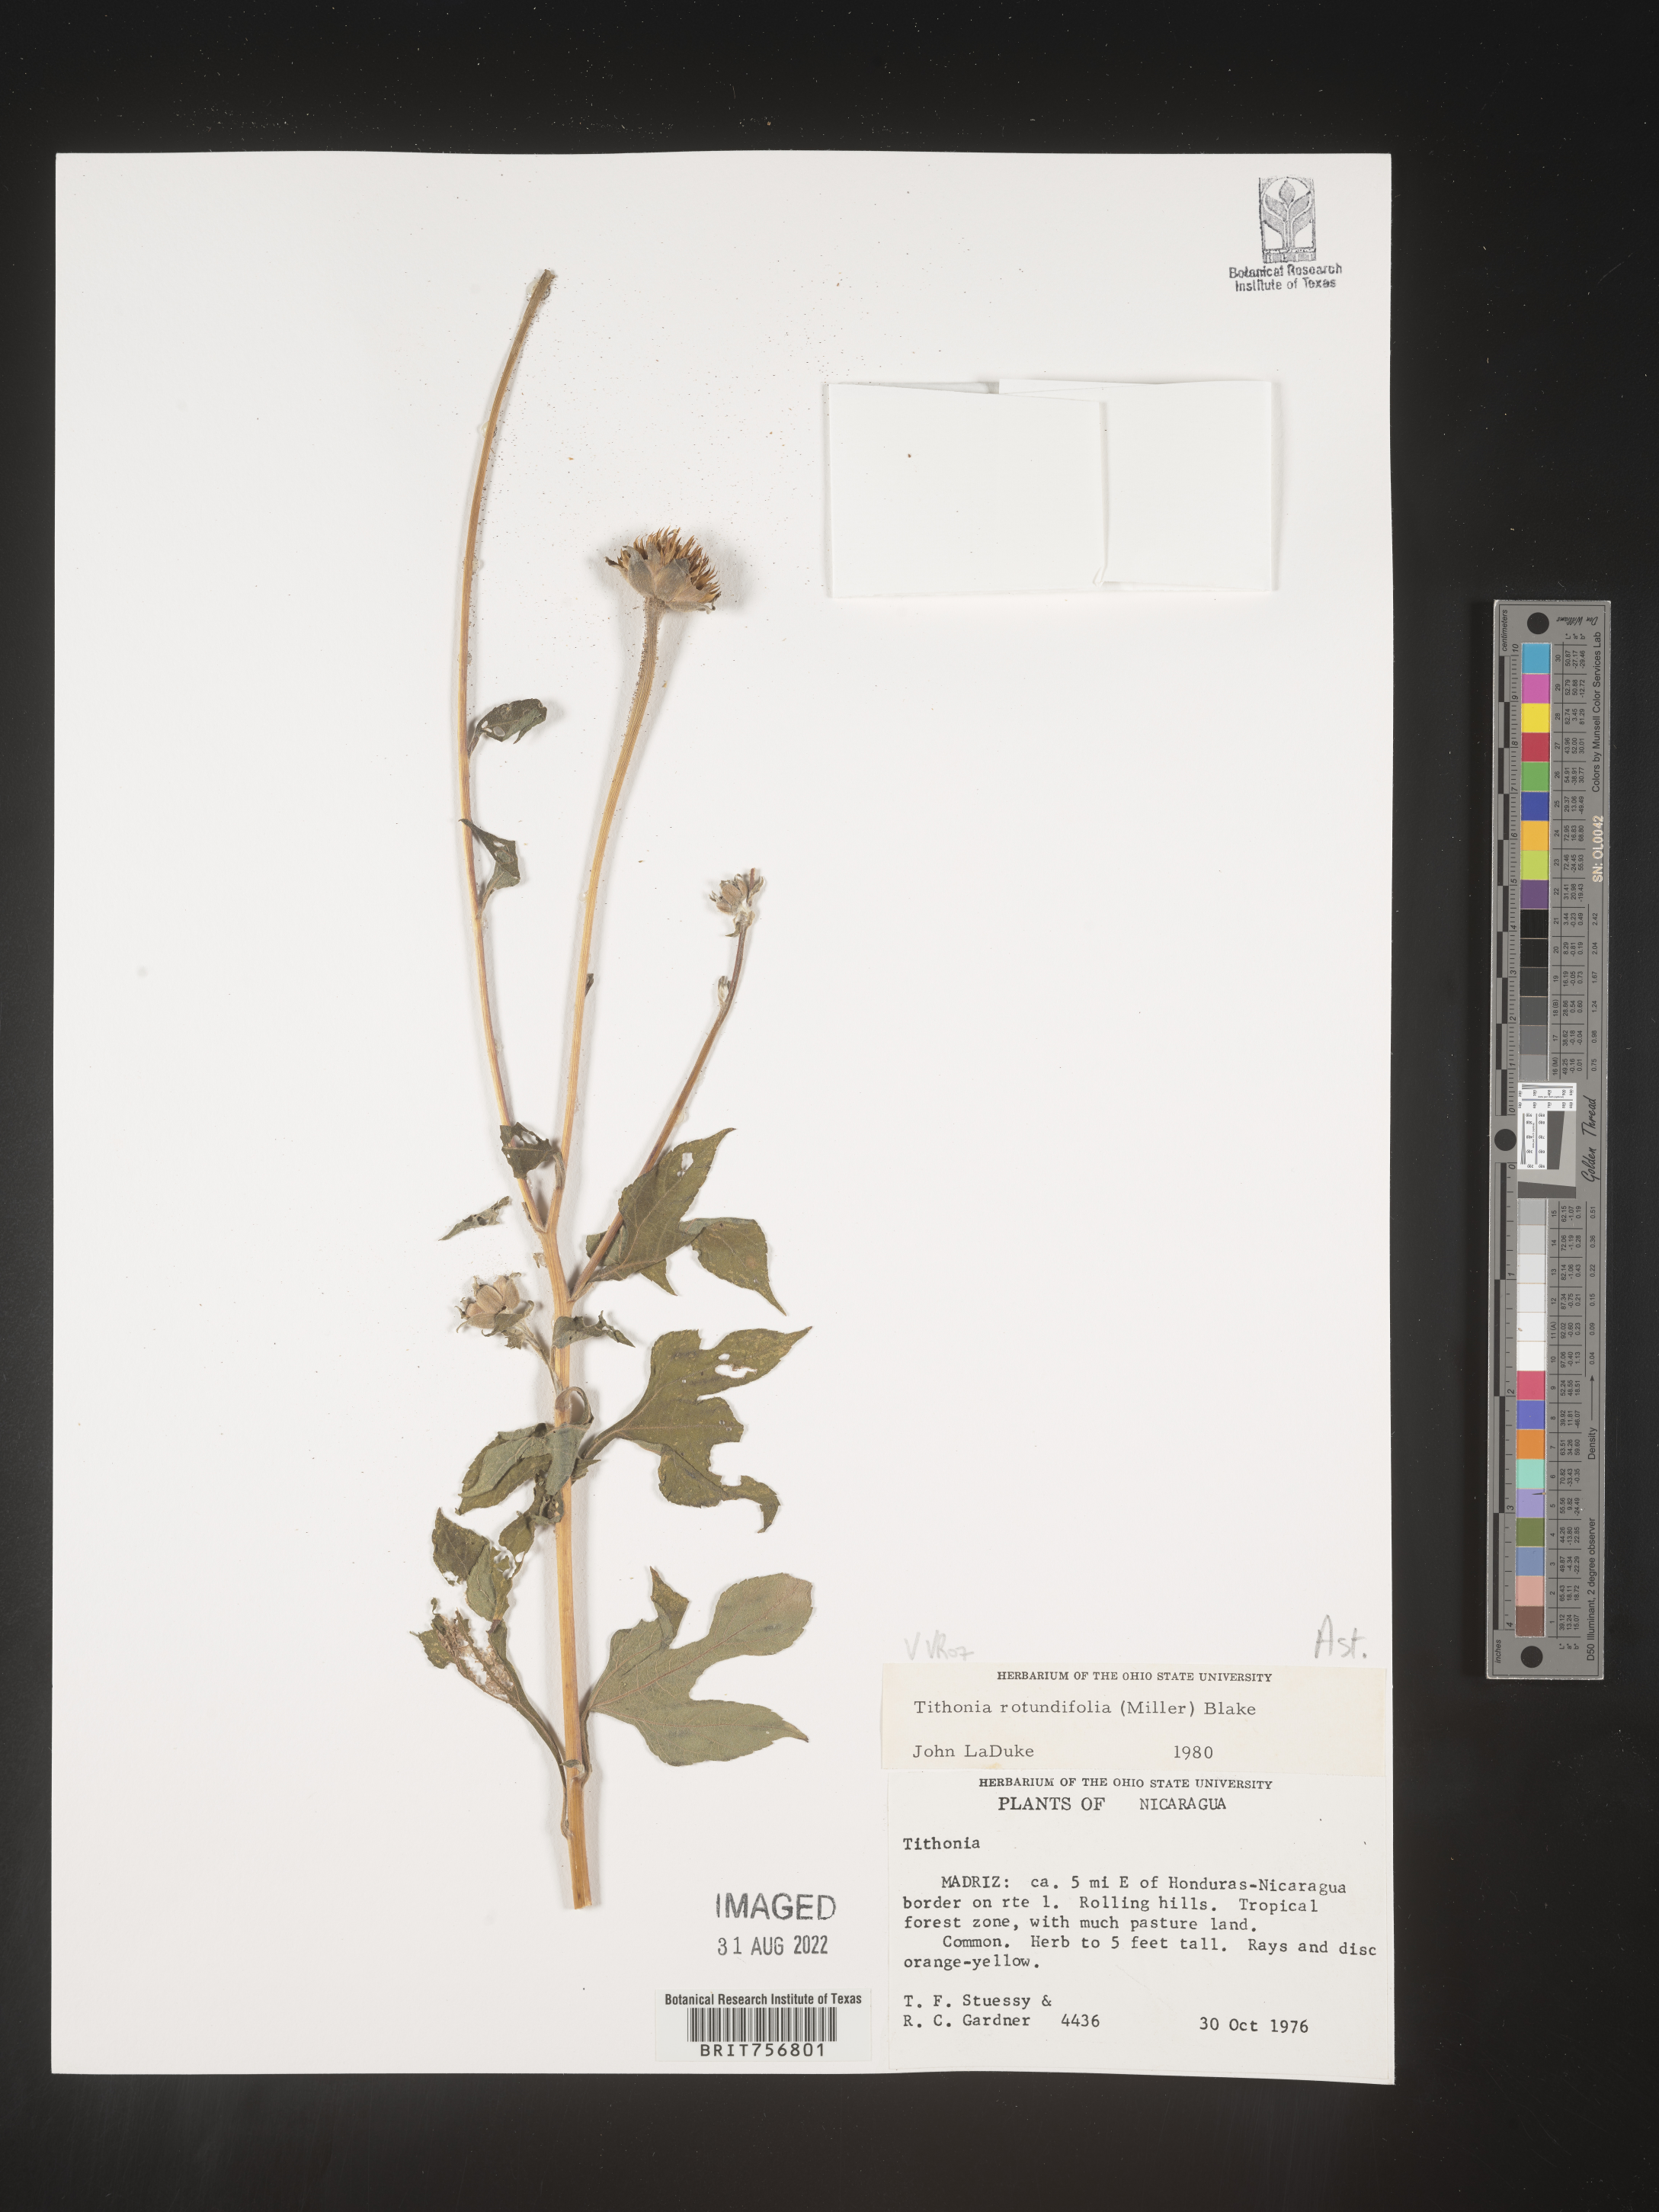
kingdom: Plantae
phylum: Tracheophyta
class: Magnoliopsida
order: Asterales
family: Asteraceae
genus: Tithonia
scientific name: Tithonia
